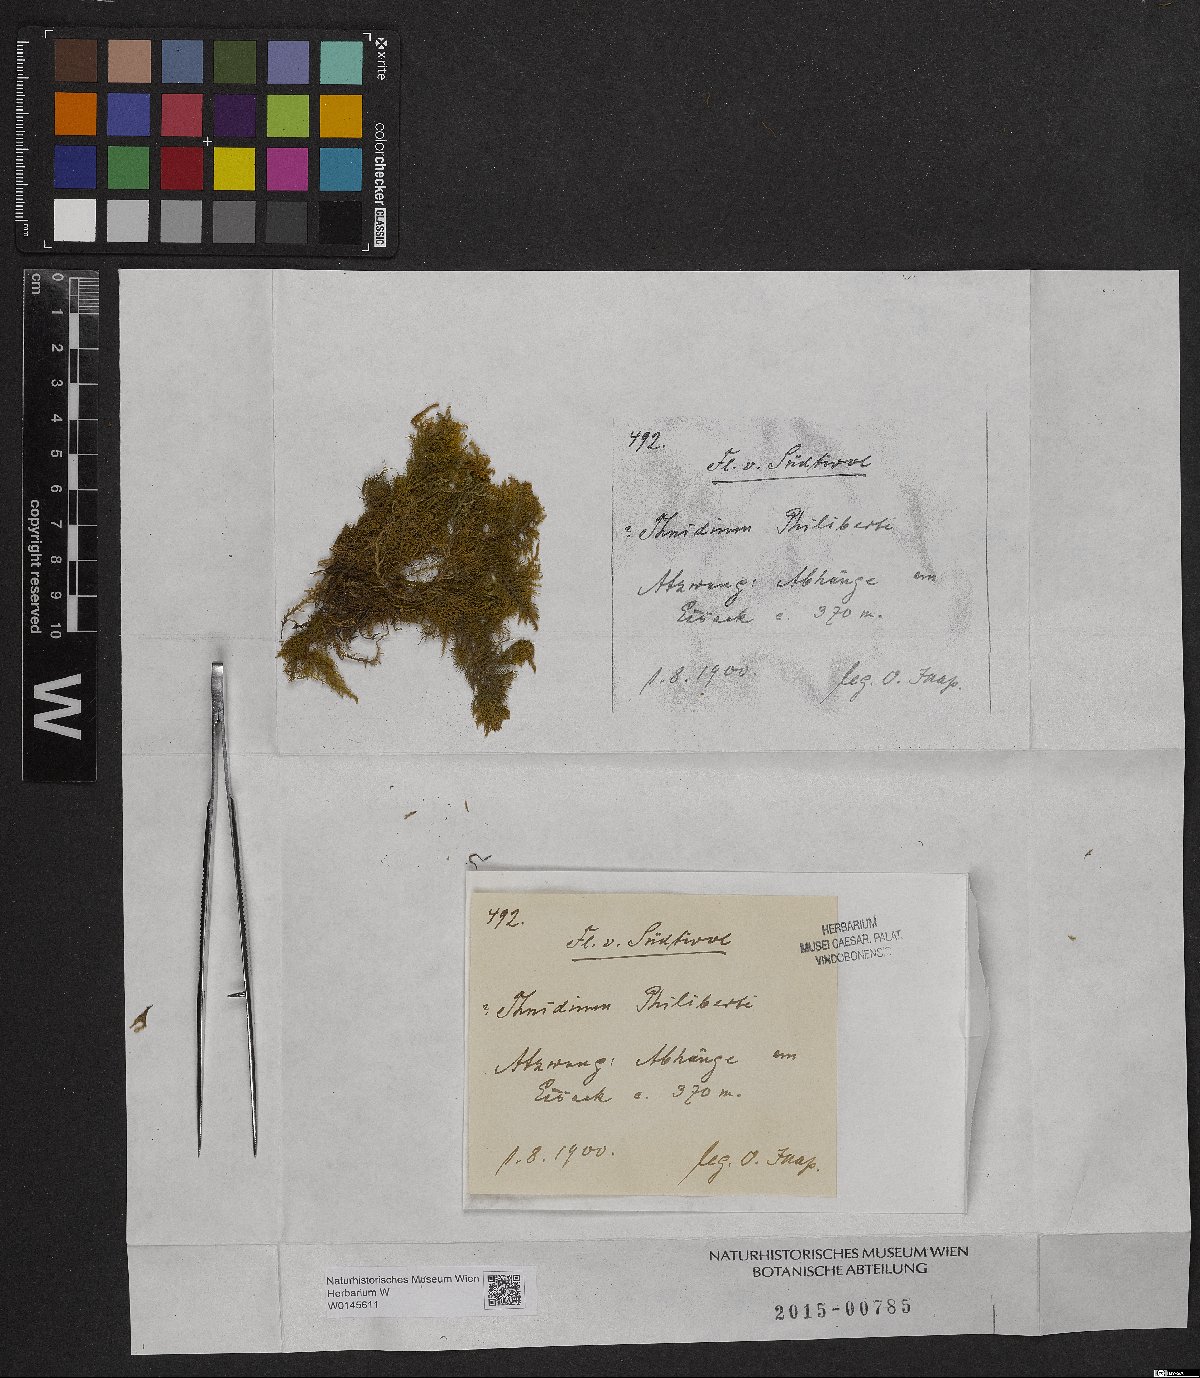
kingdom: Plantae
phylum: Bryophyta
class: Bryopsida
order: Hypnales
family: Thuidiaceae
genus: Thuidium
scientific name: Thuidium assimile
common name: Philibert's fern moss
